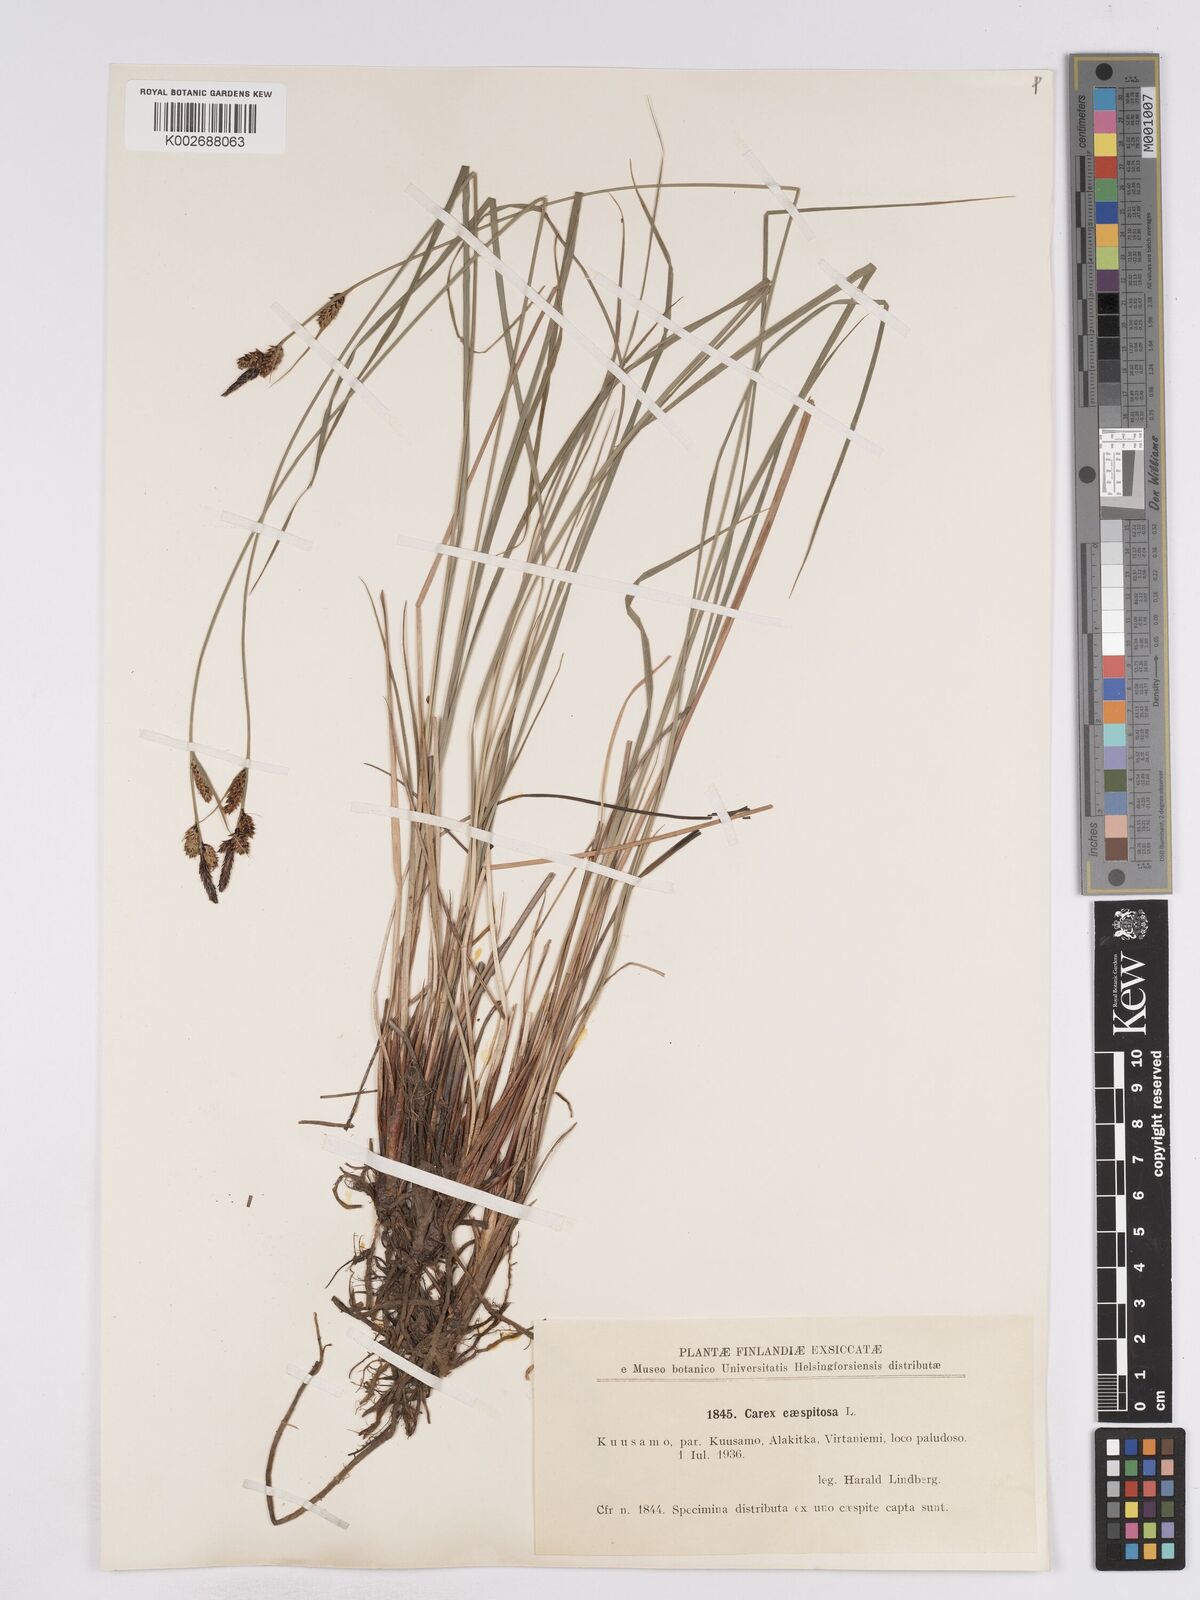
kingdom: Plantae
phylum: Tracheophyta
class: Liliopsida
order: Poales
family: Cyperaceae
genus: Carex
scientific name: Carex cespitosa
